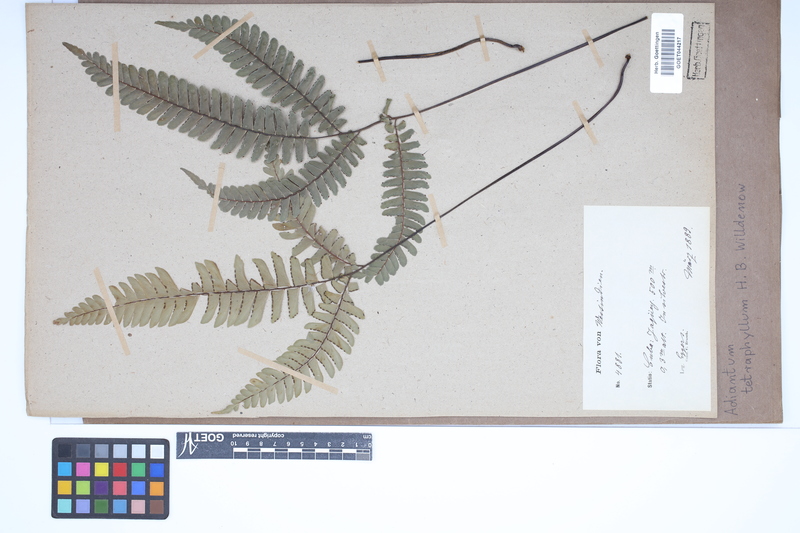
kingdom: Plantae
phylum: Tracheophyta
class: Polypodiopsida
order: Polypodiales
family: Pteridaceae
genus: Adiantum
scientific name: Adiantum tetraphyllum
